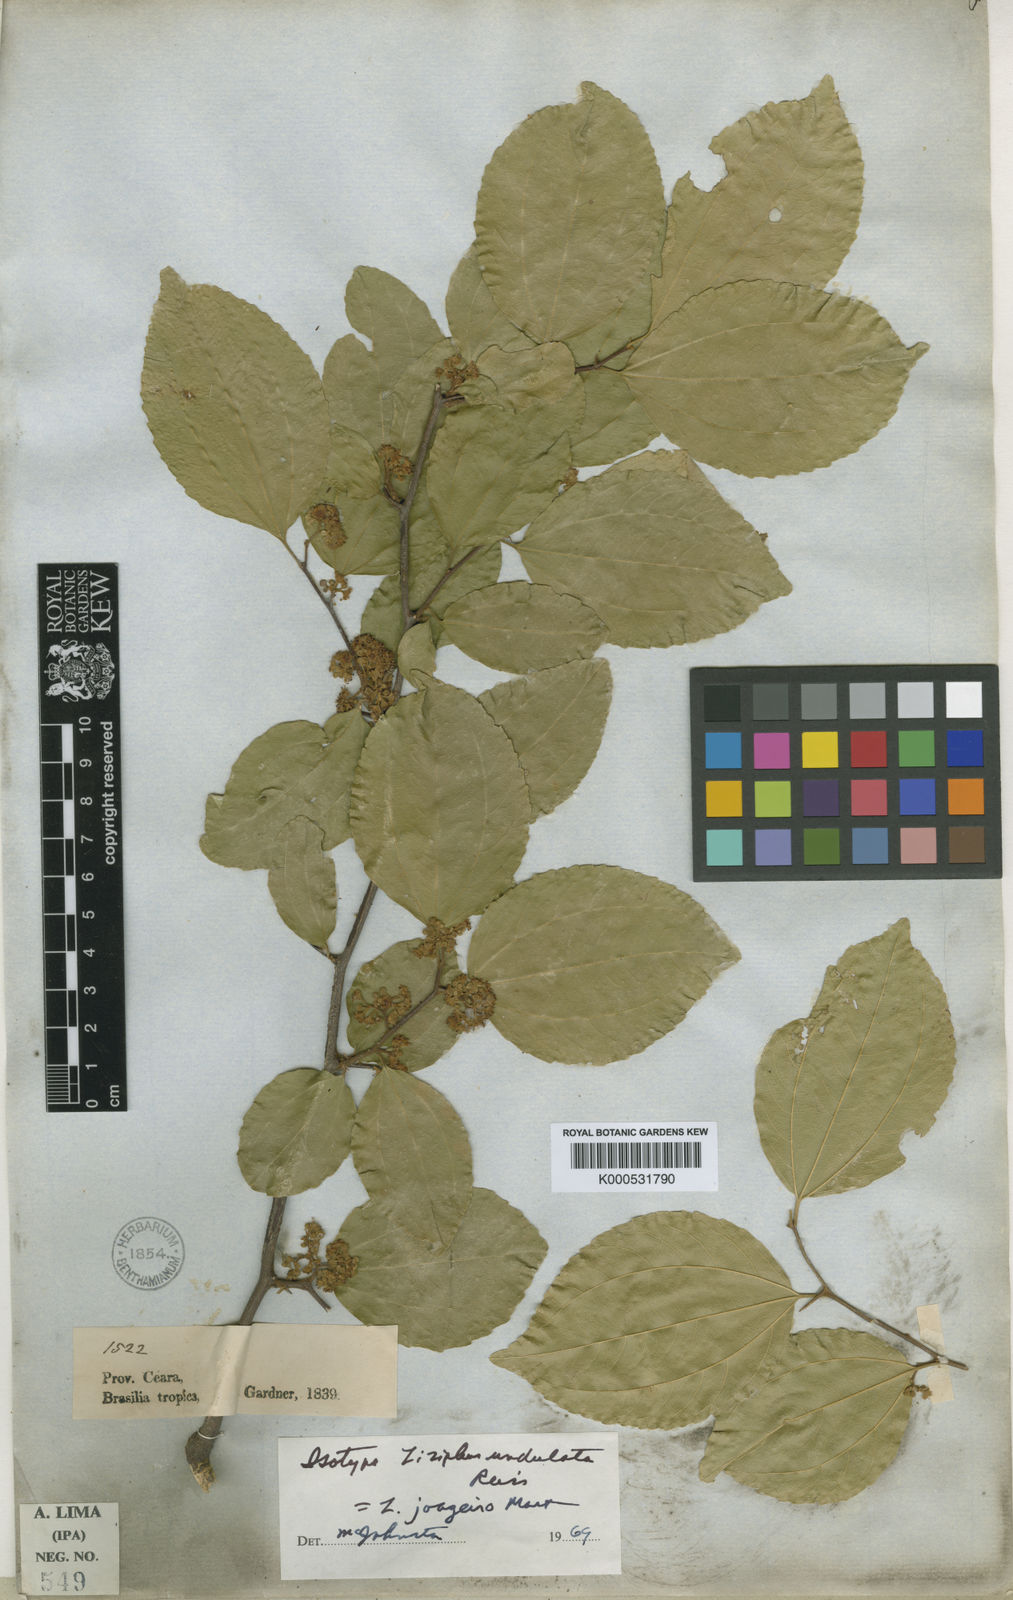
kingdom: Plantae
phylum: Tracheophyta
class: Magnoliopsida
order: Rosales
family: Rhamnaceae
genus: Sarcomphalus
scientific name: Sarcomphalus joazeiro
